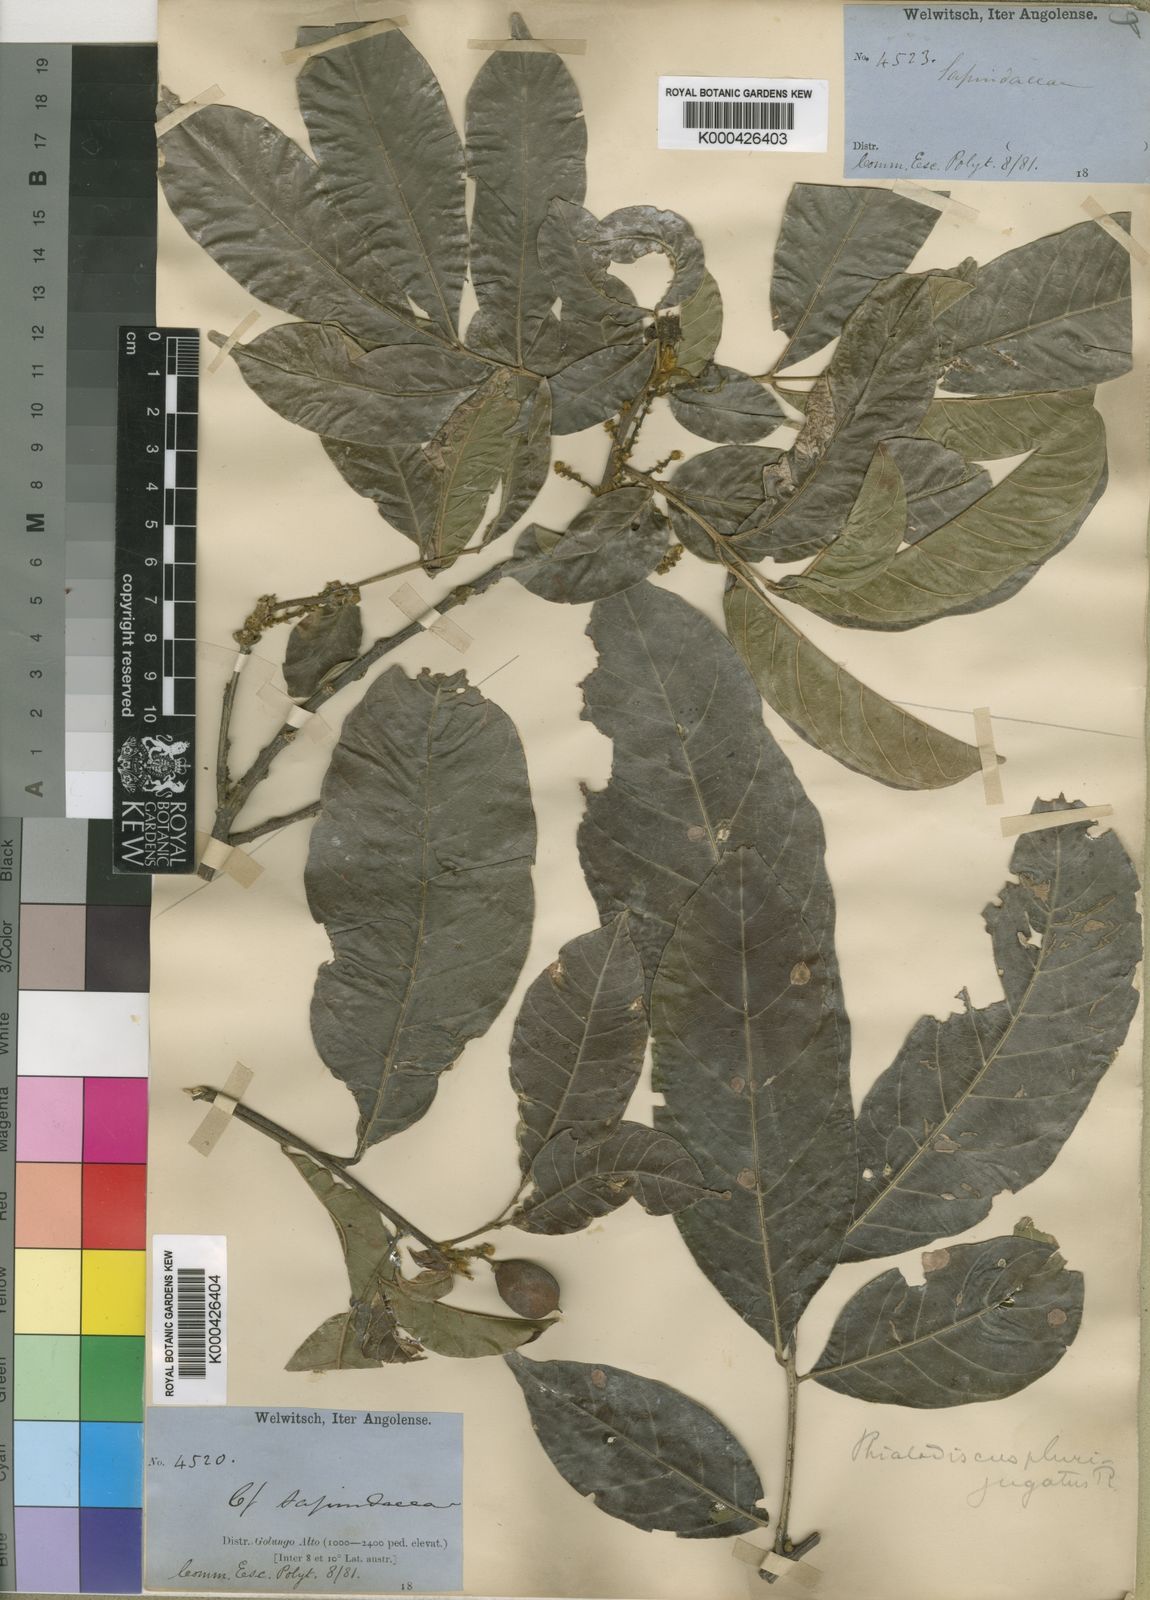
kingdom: Plantae
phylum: Tracheophyta
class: Magnoliopsida
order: Sapindales
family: Sapindaceae
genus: Blighia
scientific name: Blighia unijugata
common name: Triangle tops
